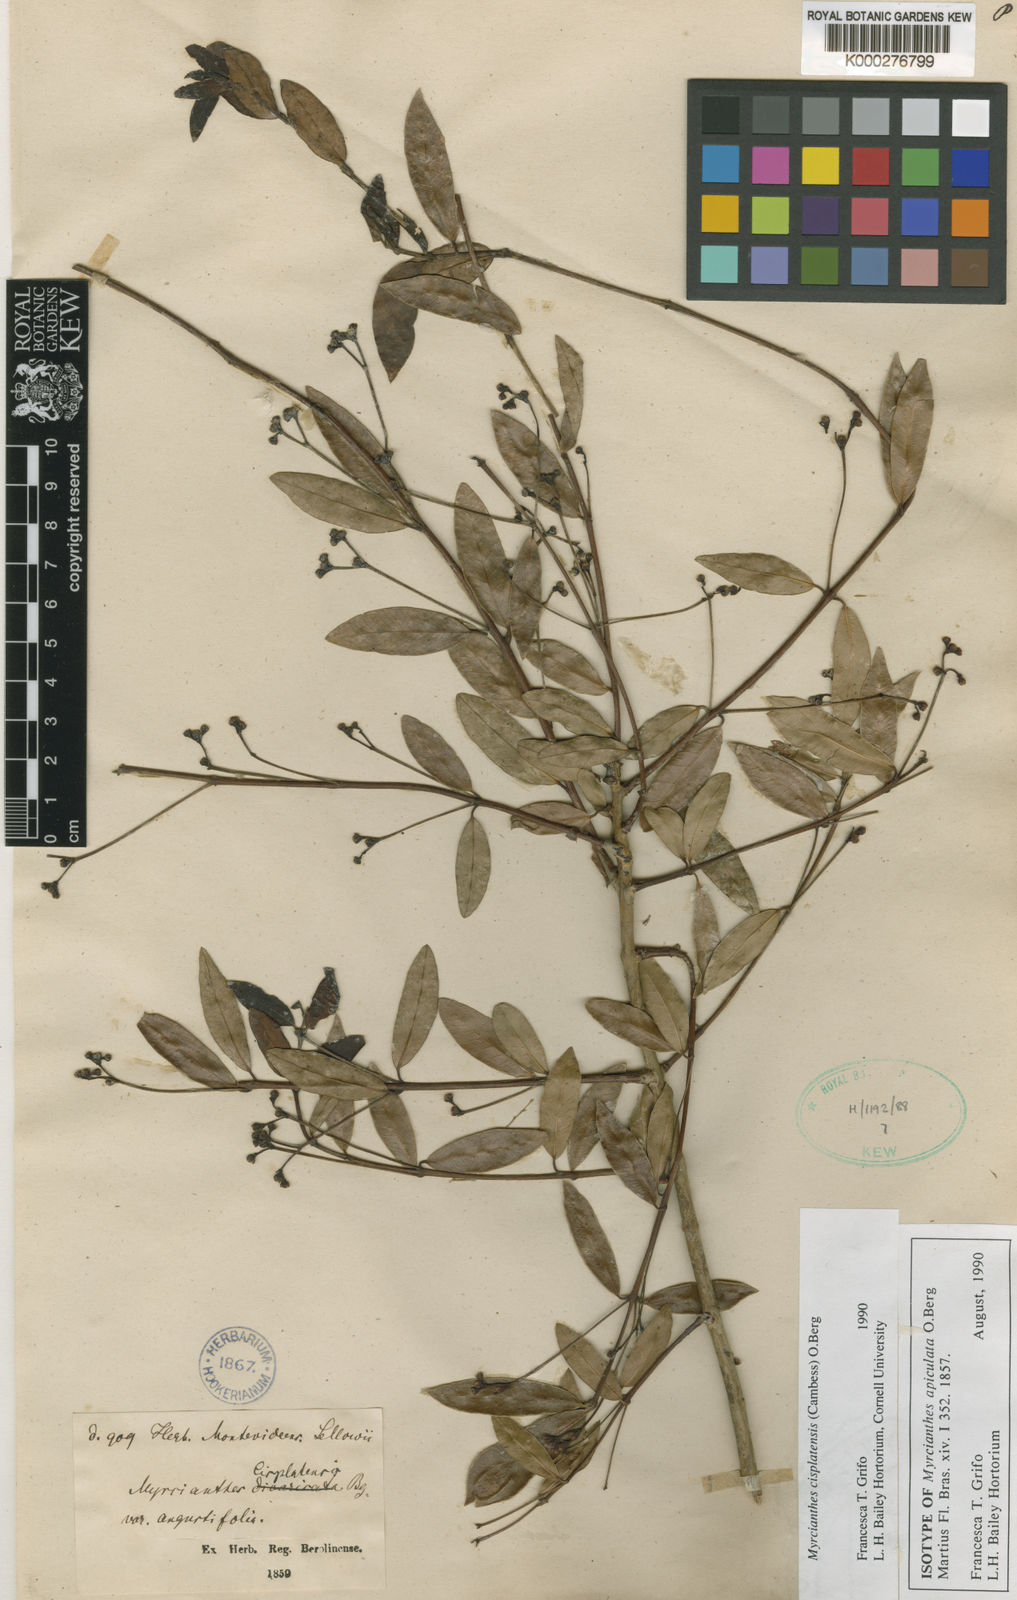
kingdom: Plantae
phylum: Tracheophyta
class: Magnoliopsida
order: Myrtales
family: Myrtaceae
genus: Myrcianthes
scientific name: Myrcianthes cisplatensis
